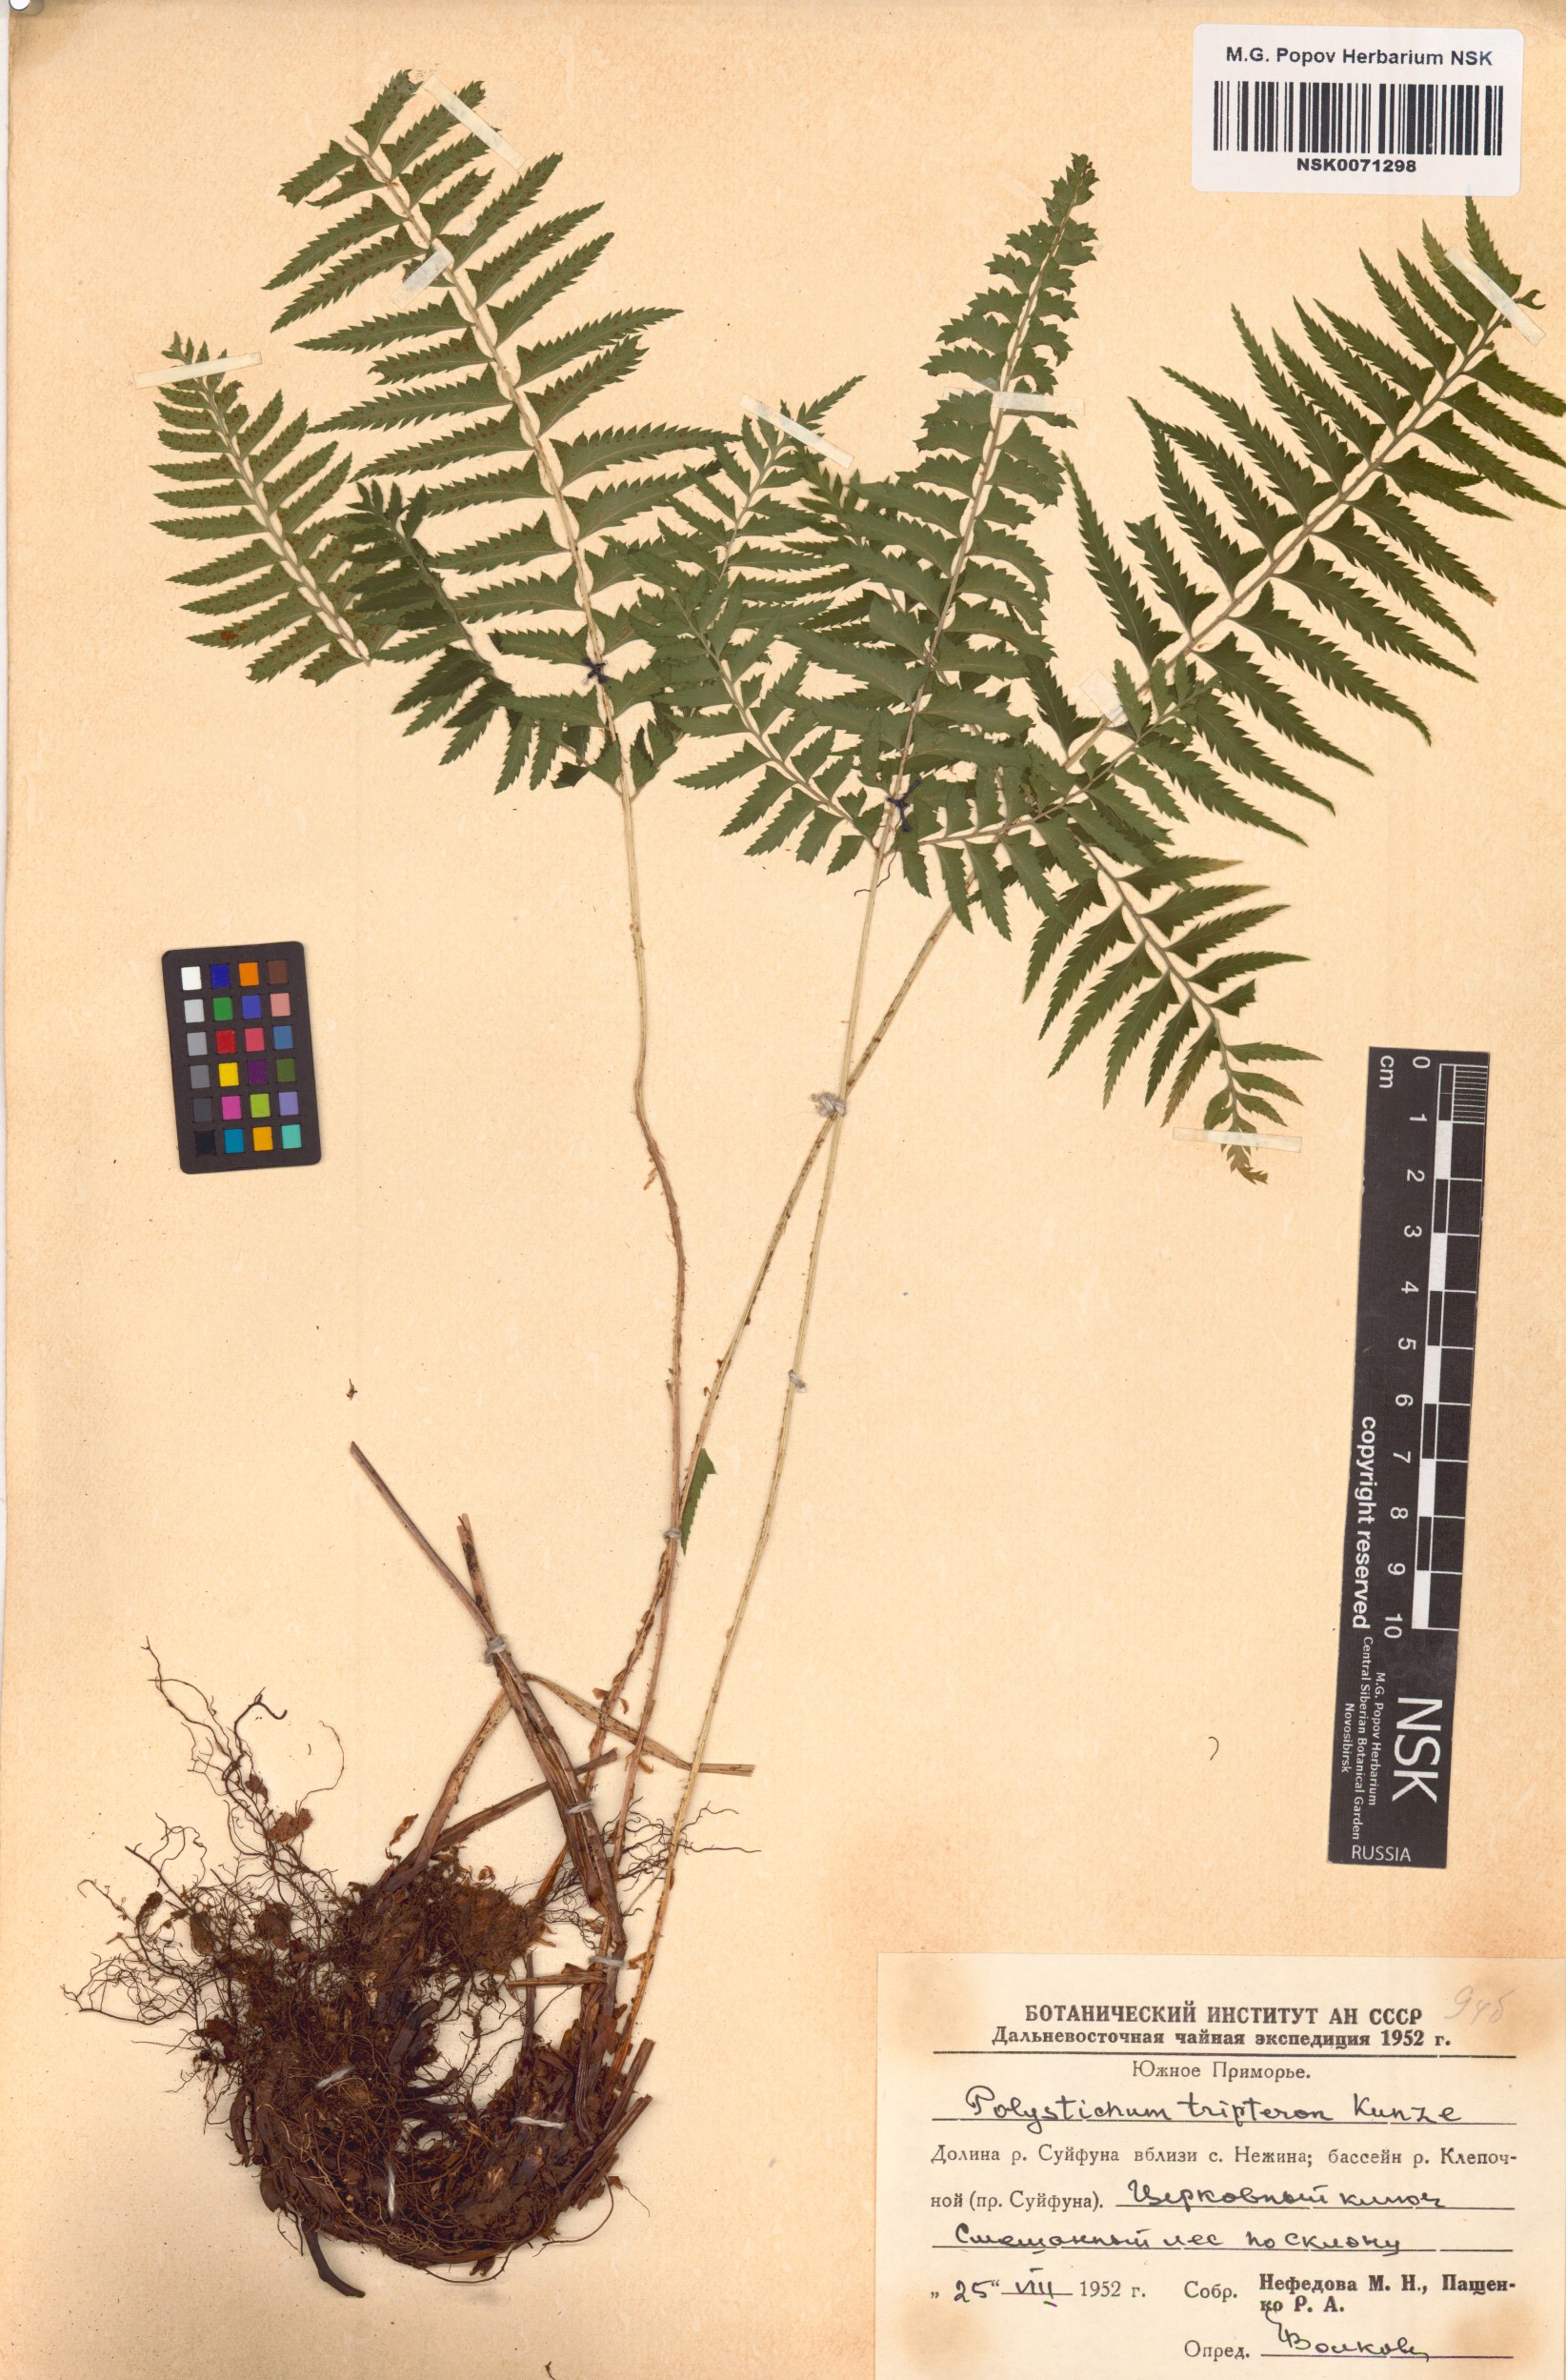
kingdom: Plantae
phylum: Tracheophyta
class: Polypodiopsida
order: Polypodiales
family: Dryopteridaceae
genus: Polystichum
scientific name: Polystichum tripteron
